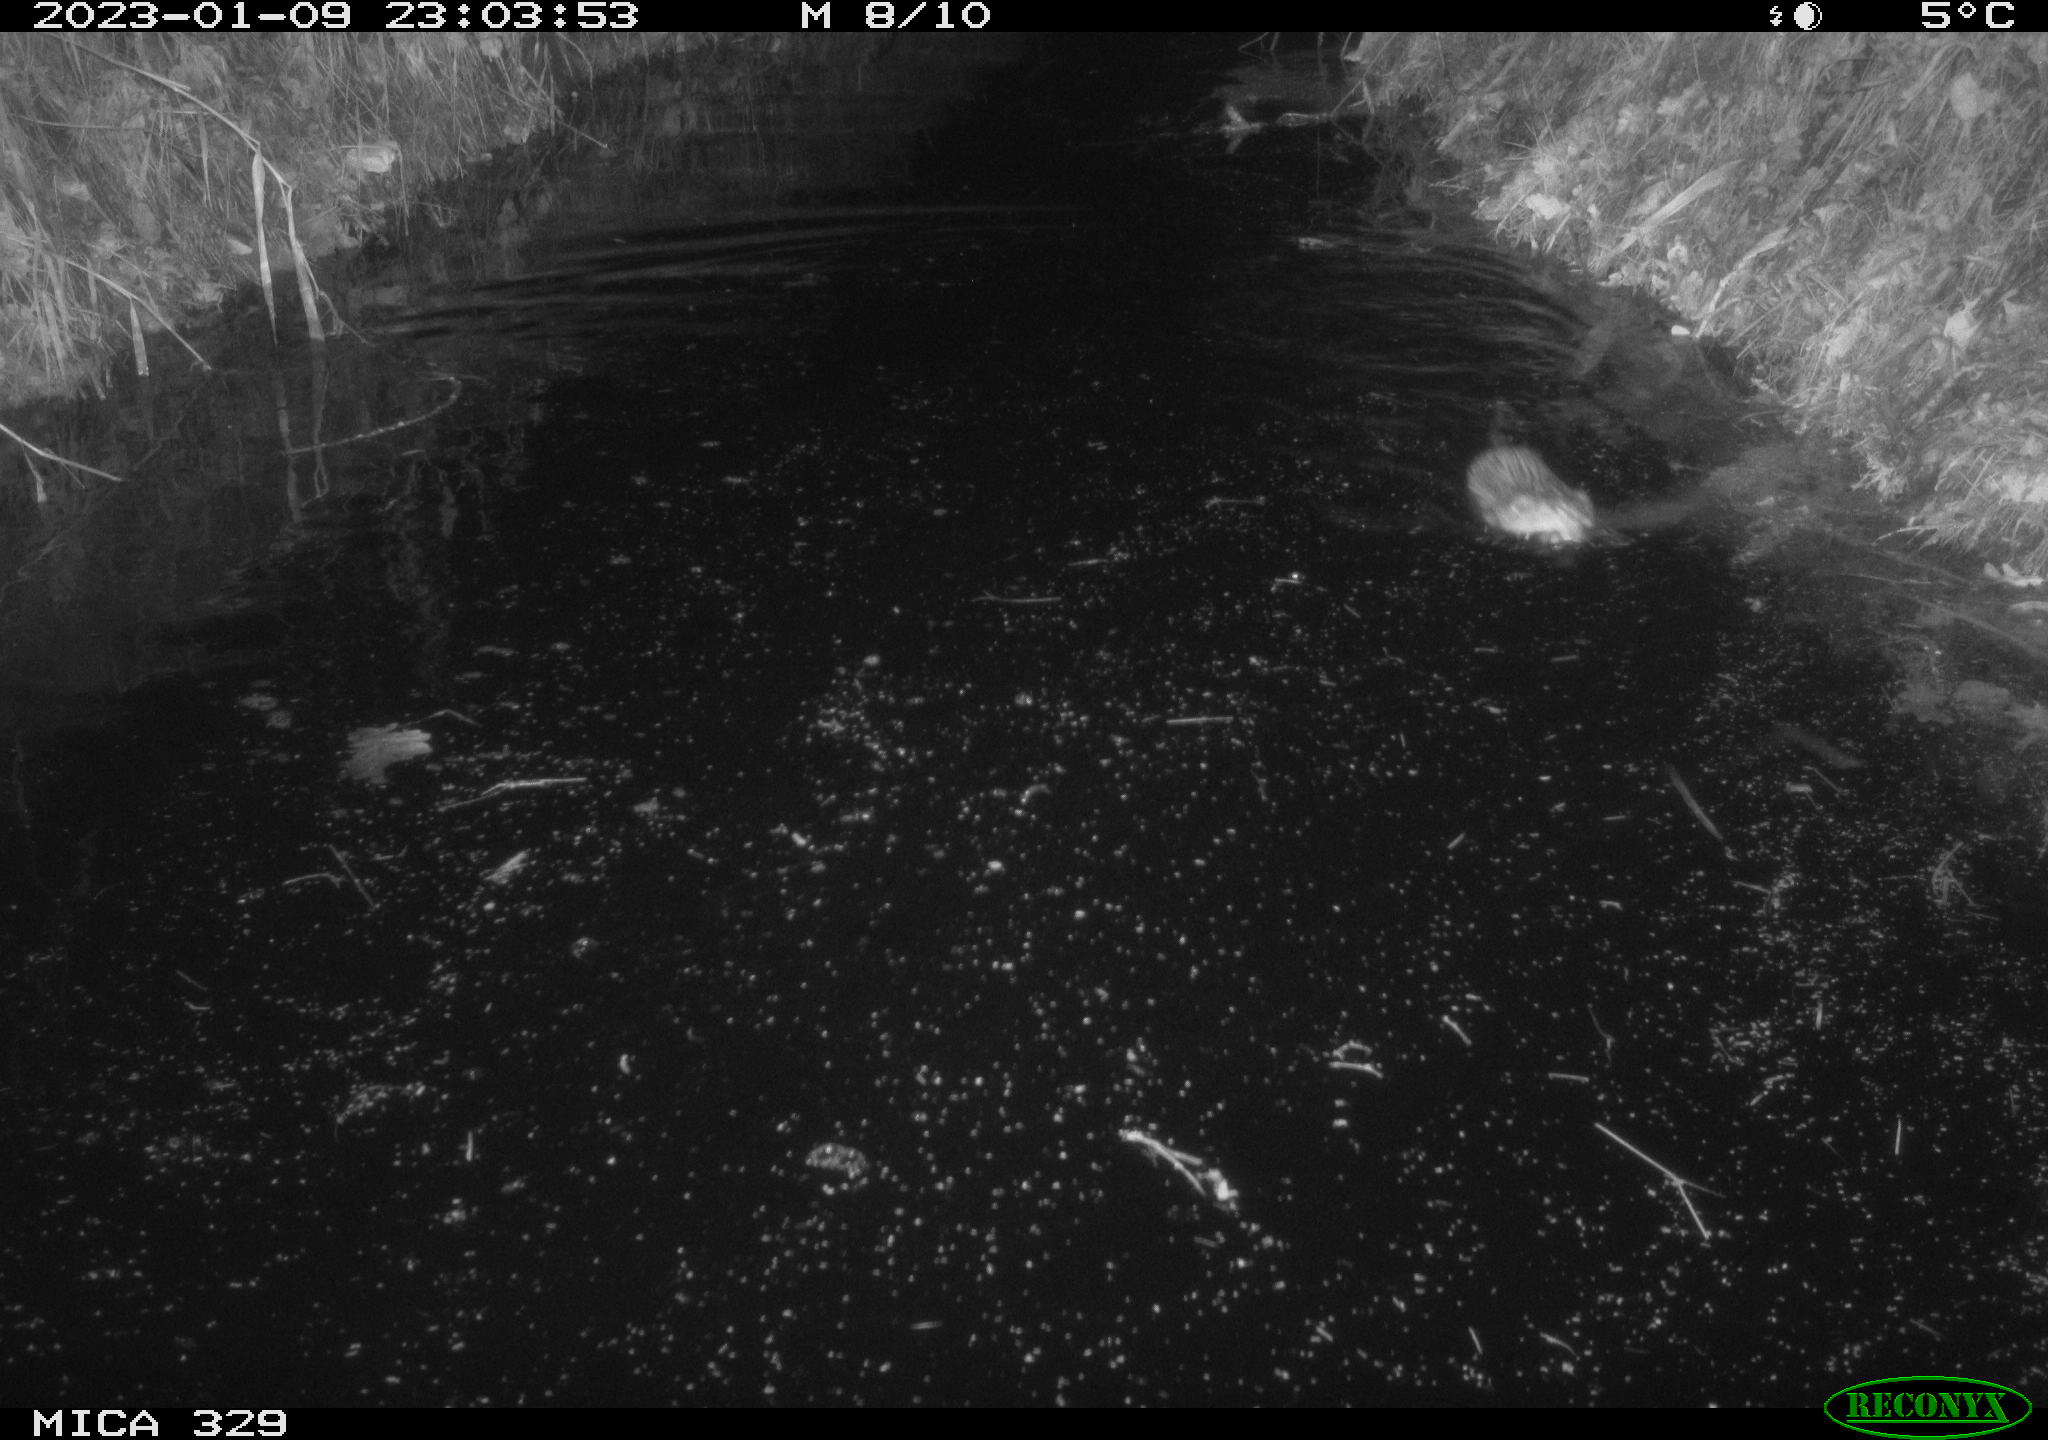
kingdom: Animalia
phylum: Chordata
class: Mammalia
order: Rodentia
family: Cricetidae
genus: Ondatra
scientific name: Ondatra zibethicus
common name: Muskrat
